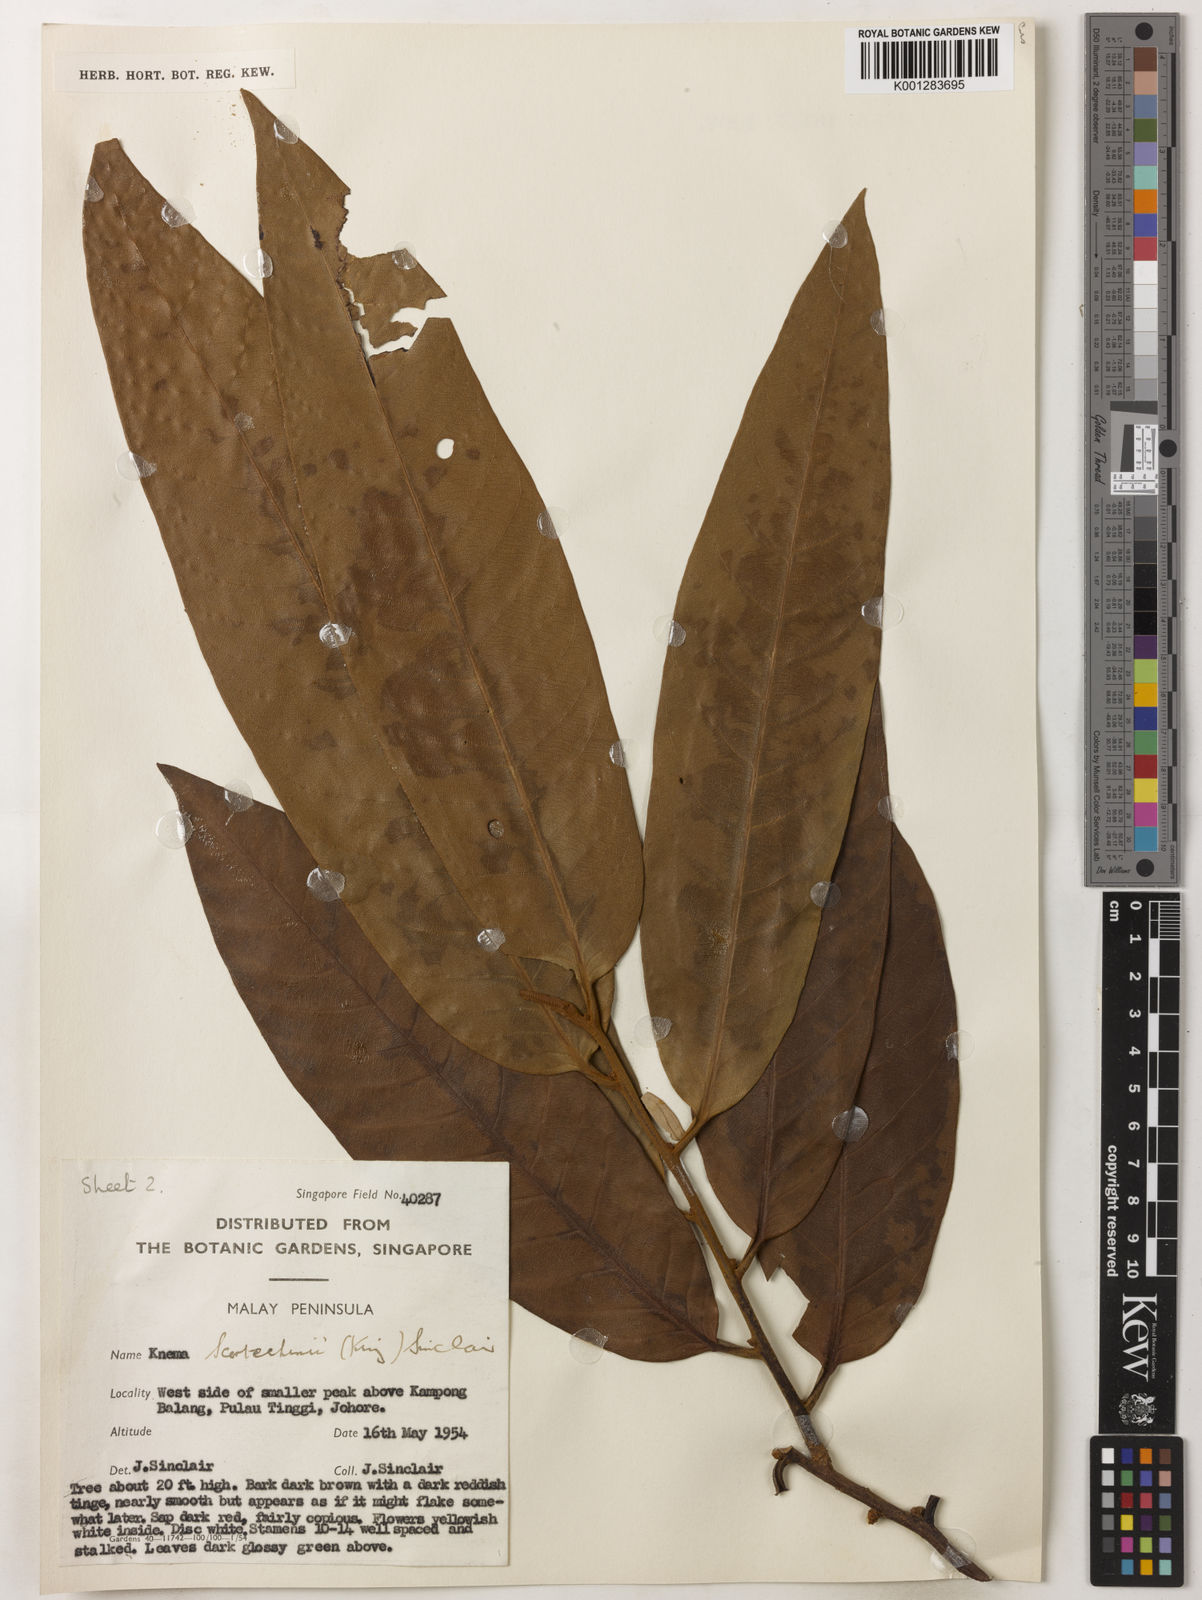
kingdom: Plantae
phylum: Tracheophyta
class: Magnoliopsida
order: Magnoliales
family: Myristicaceae
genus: Knema
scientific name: Knema scortechinii
